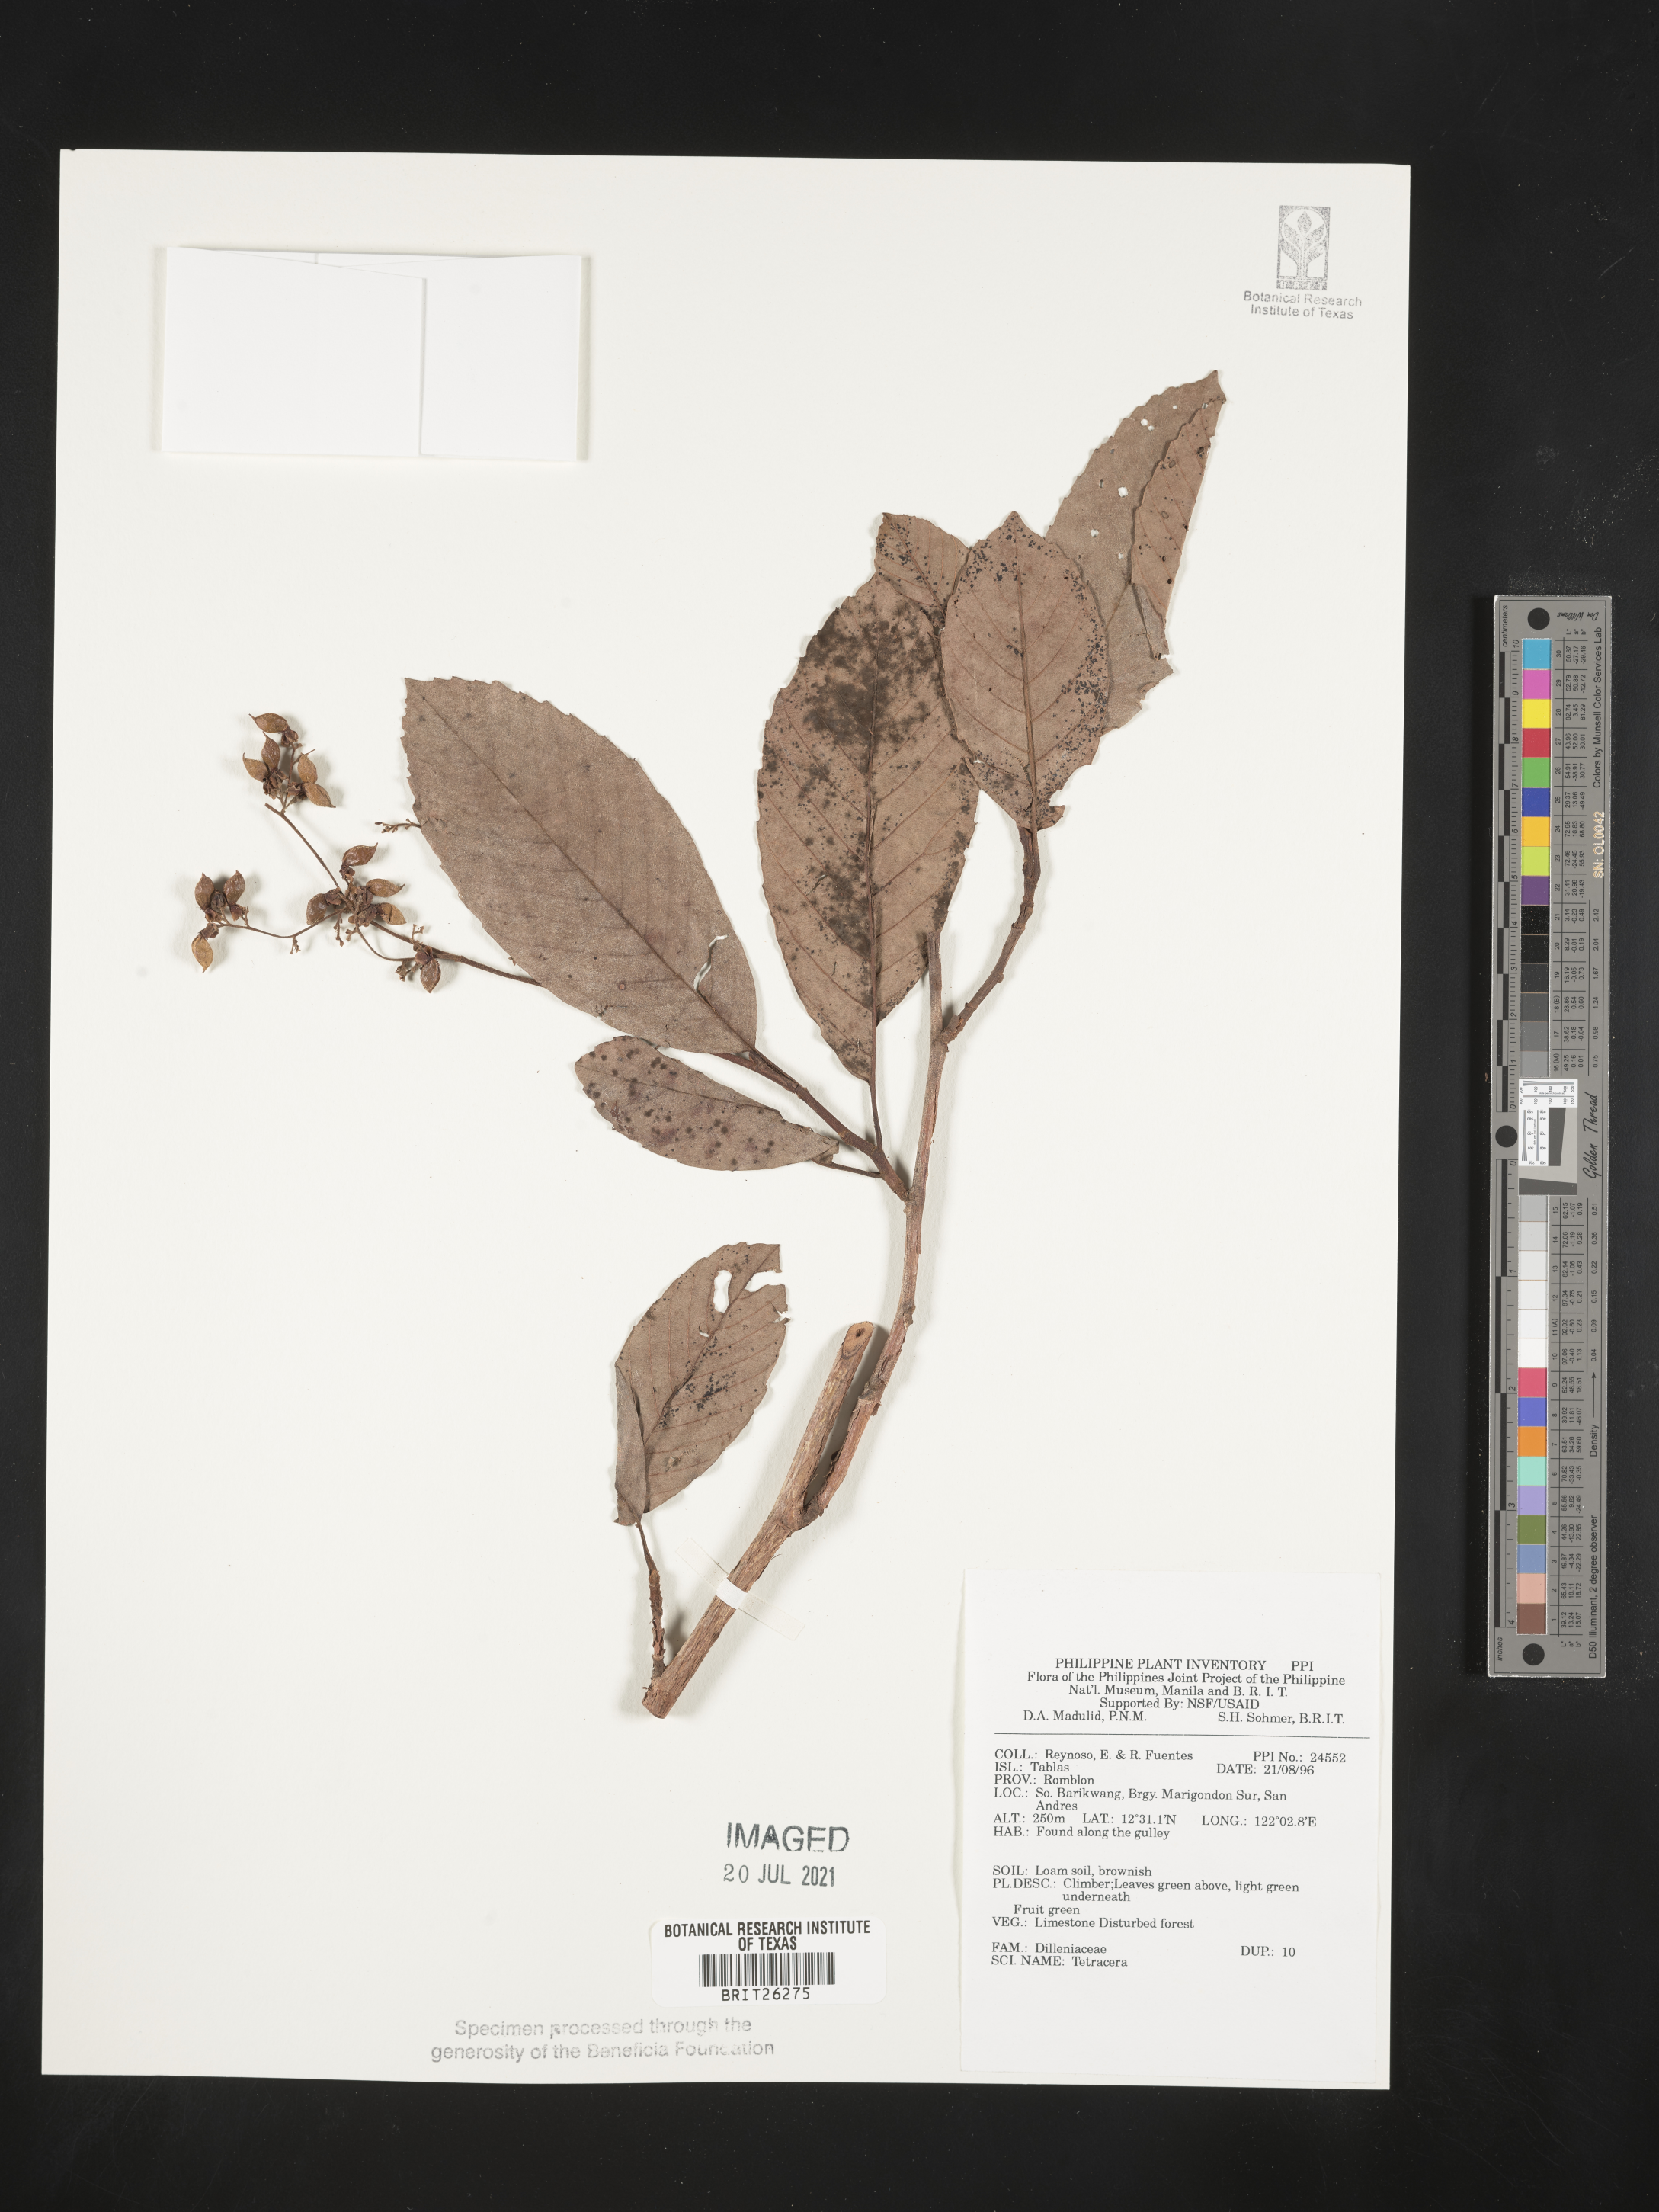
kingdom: Plantae
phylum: Tracheophyta
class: Magnoliopsida
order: Dilleniales
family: Dilleniaceae
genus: Tetracera
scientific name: Tetracera
